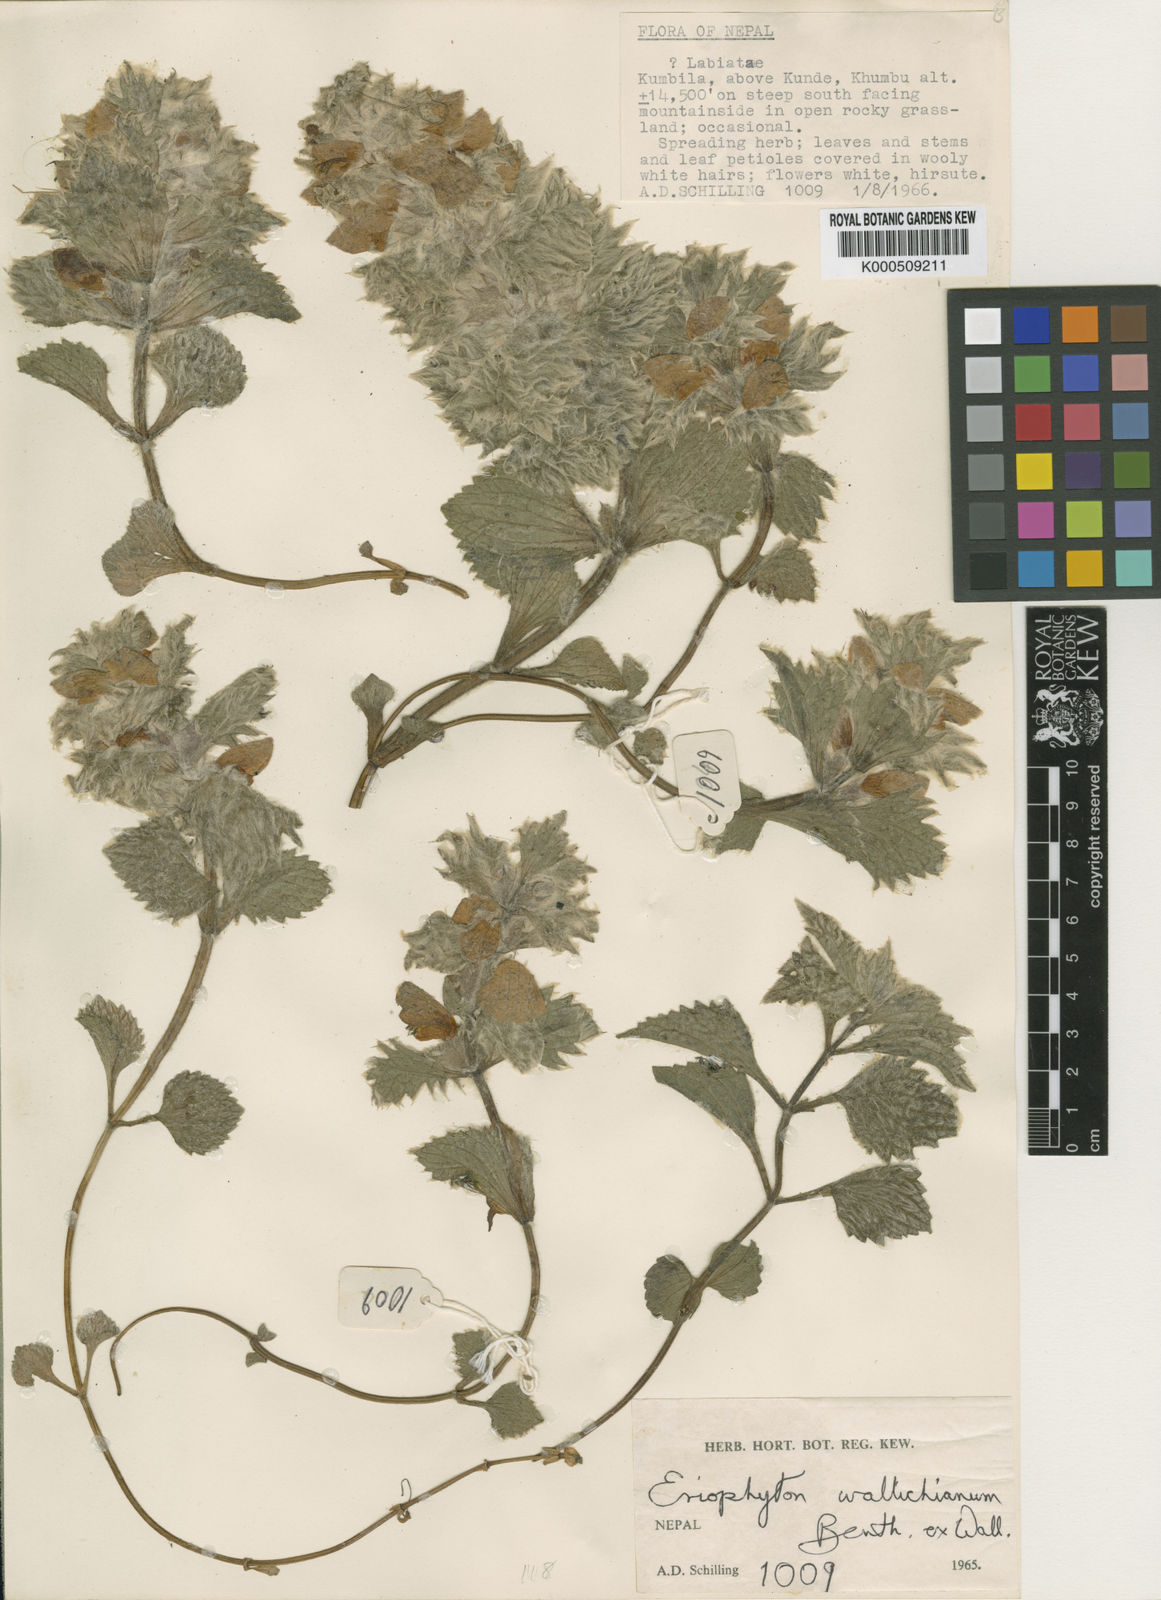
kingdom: Plantae
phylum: Tracheophyta
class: Magnoliopsida
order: Lamiales
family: Lamiaceae
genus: Eriophyton
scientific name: Eriophyton wallichii
